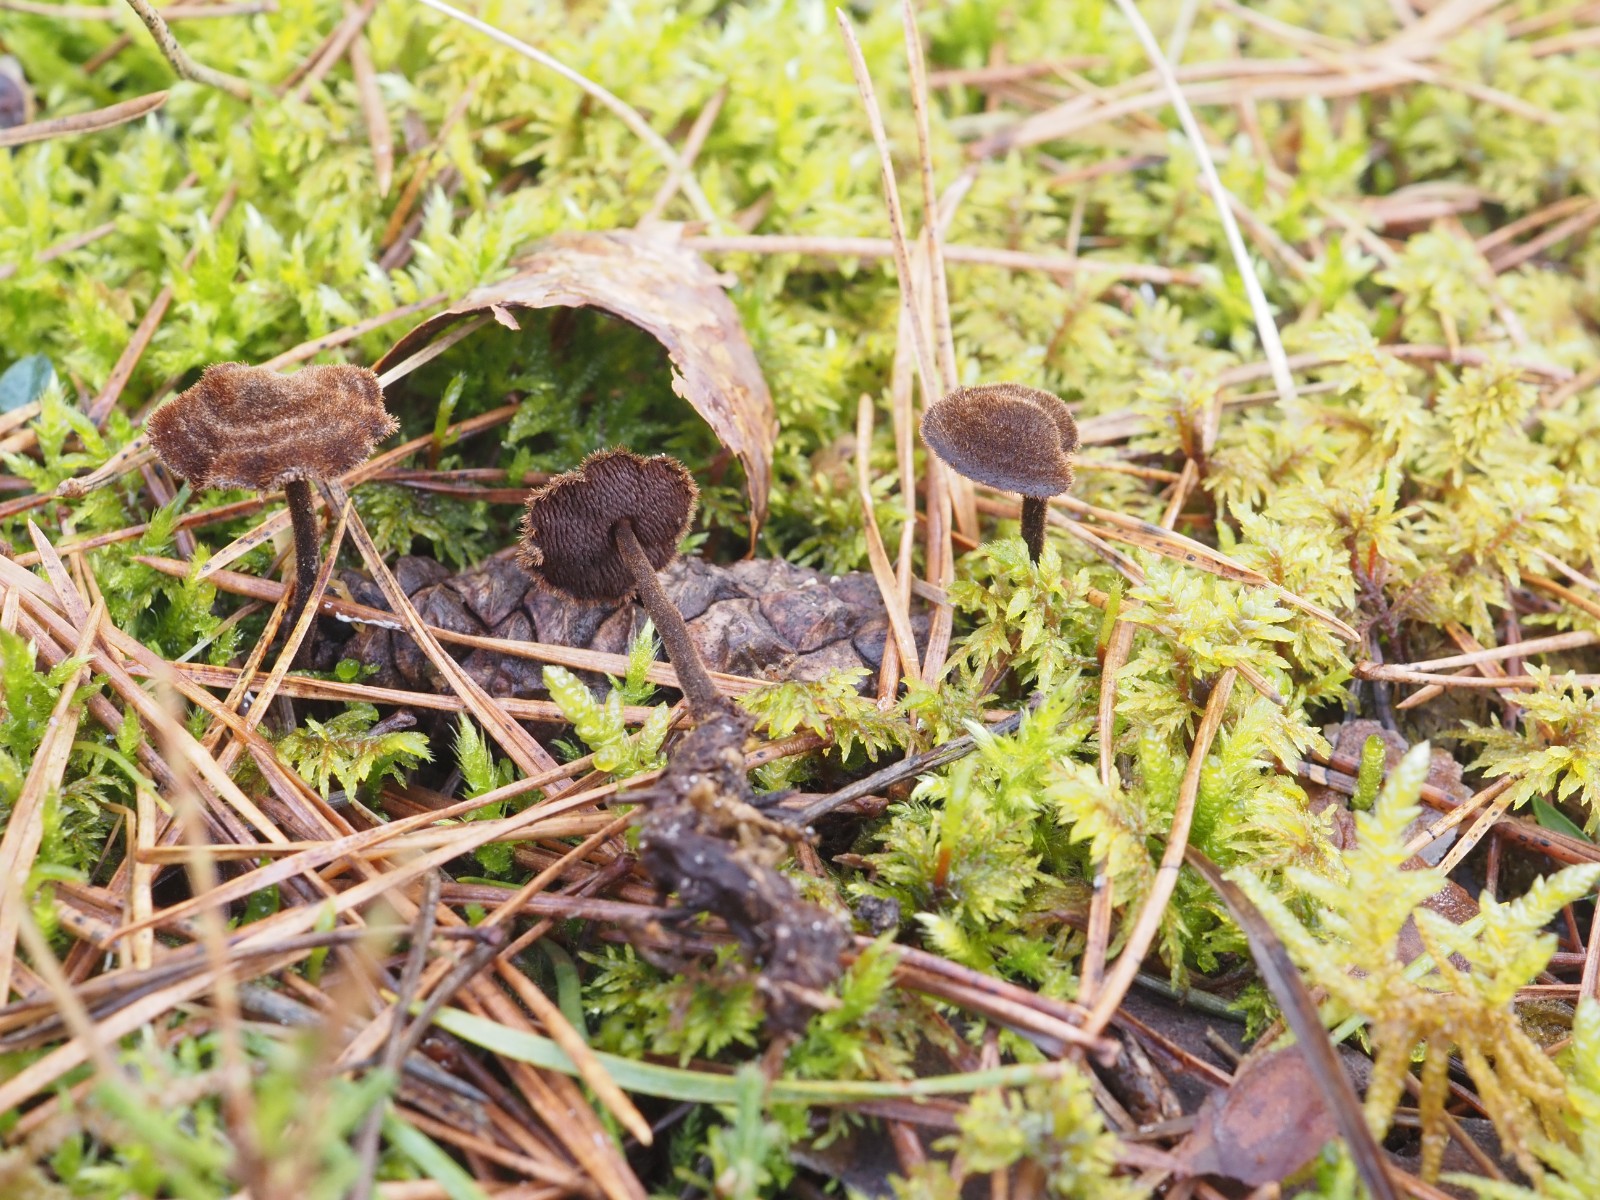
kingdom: Fungi
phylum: Basidiomycota
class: Agaricomycetes
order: Russulales
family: Auriscalpiaceae
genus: Auriscalpium
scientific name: Auriscalpium vulgare
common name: koglepigsvamp
